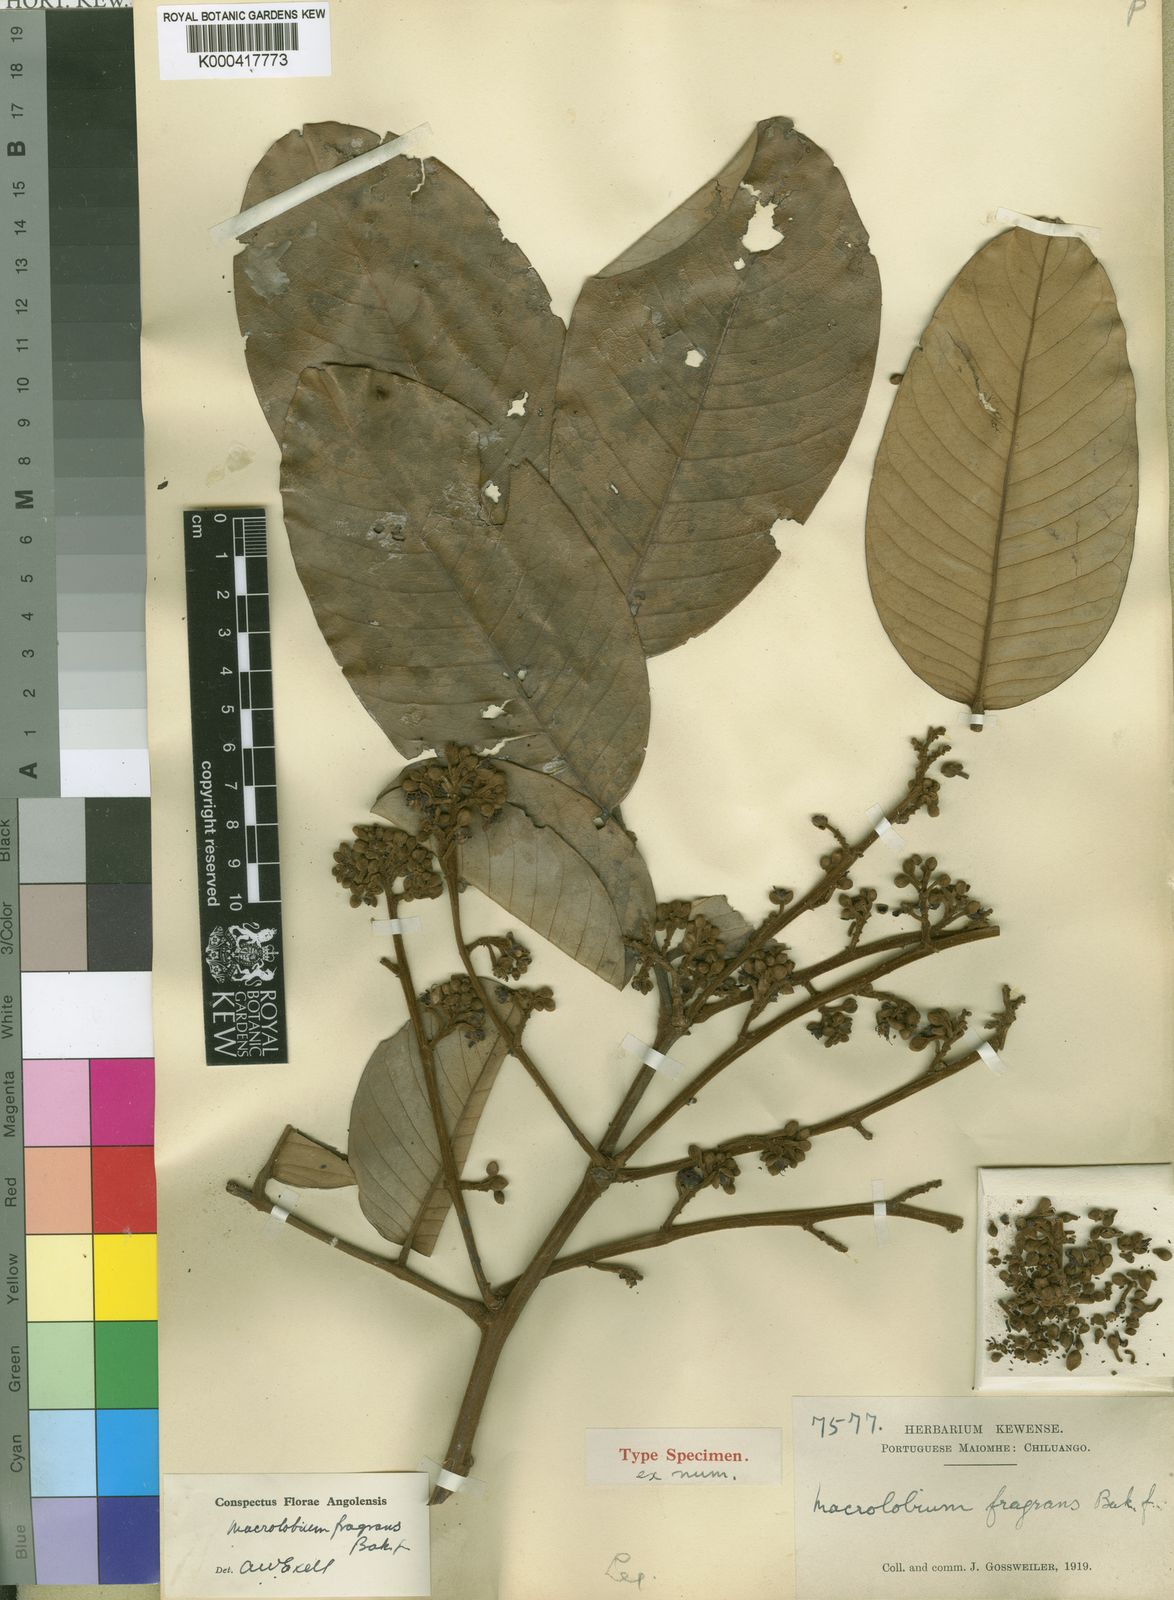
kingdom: Plantae
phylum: Tracheophyta
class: Magnoliopsida
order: Fabales
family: Fabaceae
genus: Anthonotha
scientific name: Anthonotha fragrans
